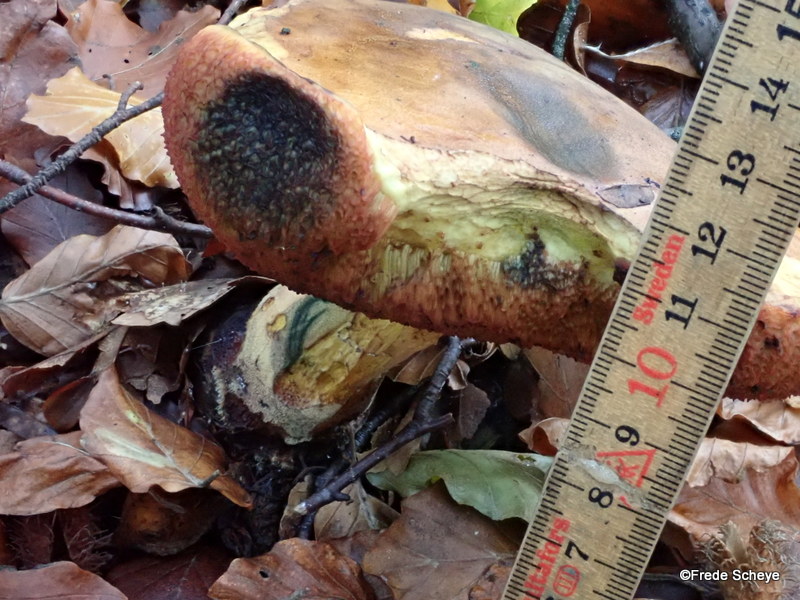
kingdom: Fungi
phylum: Basidiomycota
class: Agaricomycetes
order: Boletales
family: Boletaceae
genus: Neoboletus
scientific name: Neoboletus erythropus
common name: punktstokket indigorørhat
